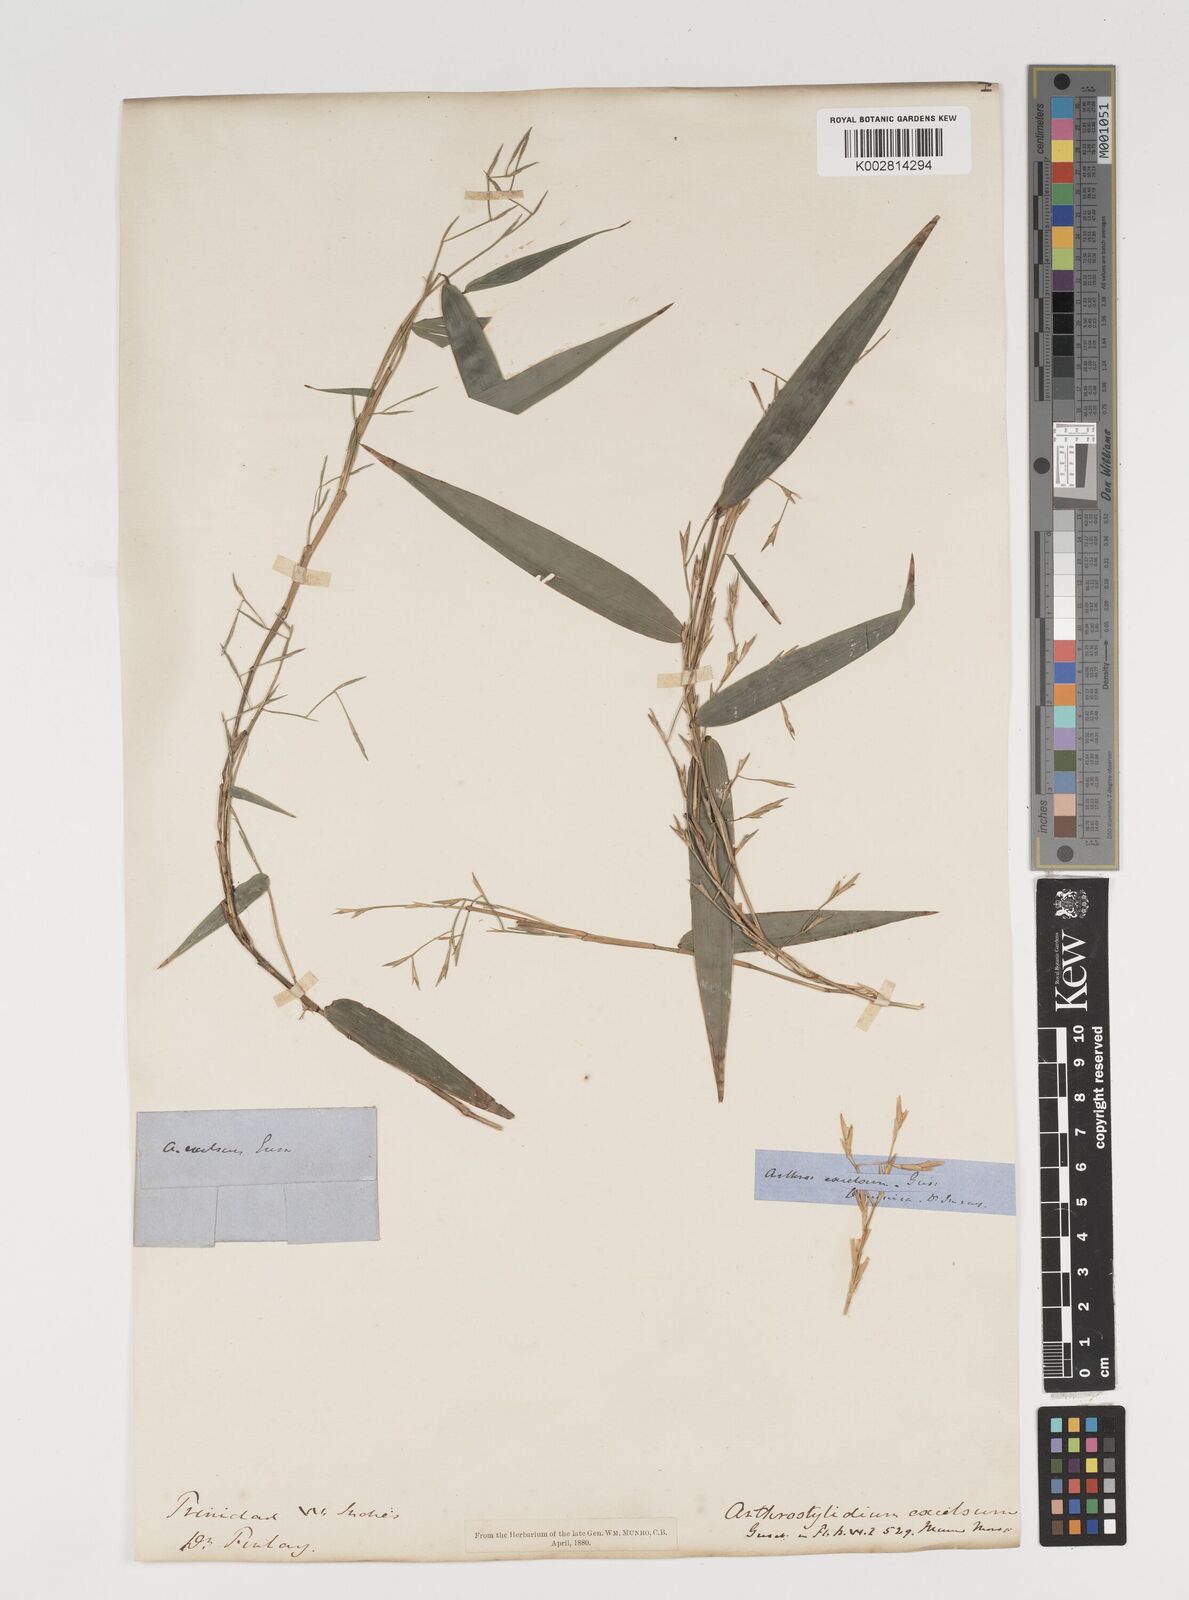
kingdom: Plantae
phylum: Tracheophyta
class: Liliopsida
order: Poales
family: Poaceae
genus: Arthrostylidium
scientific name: Arthrostylidium excelsum
